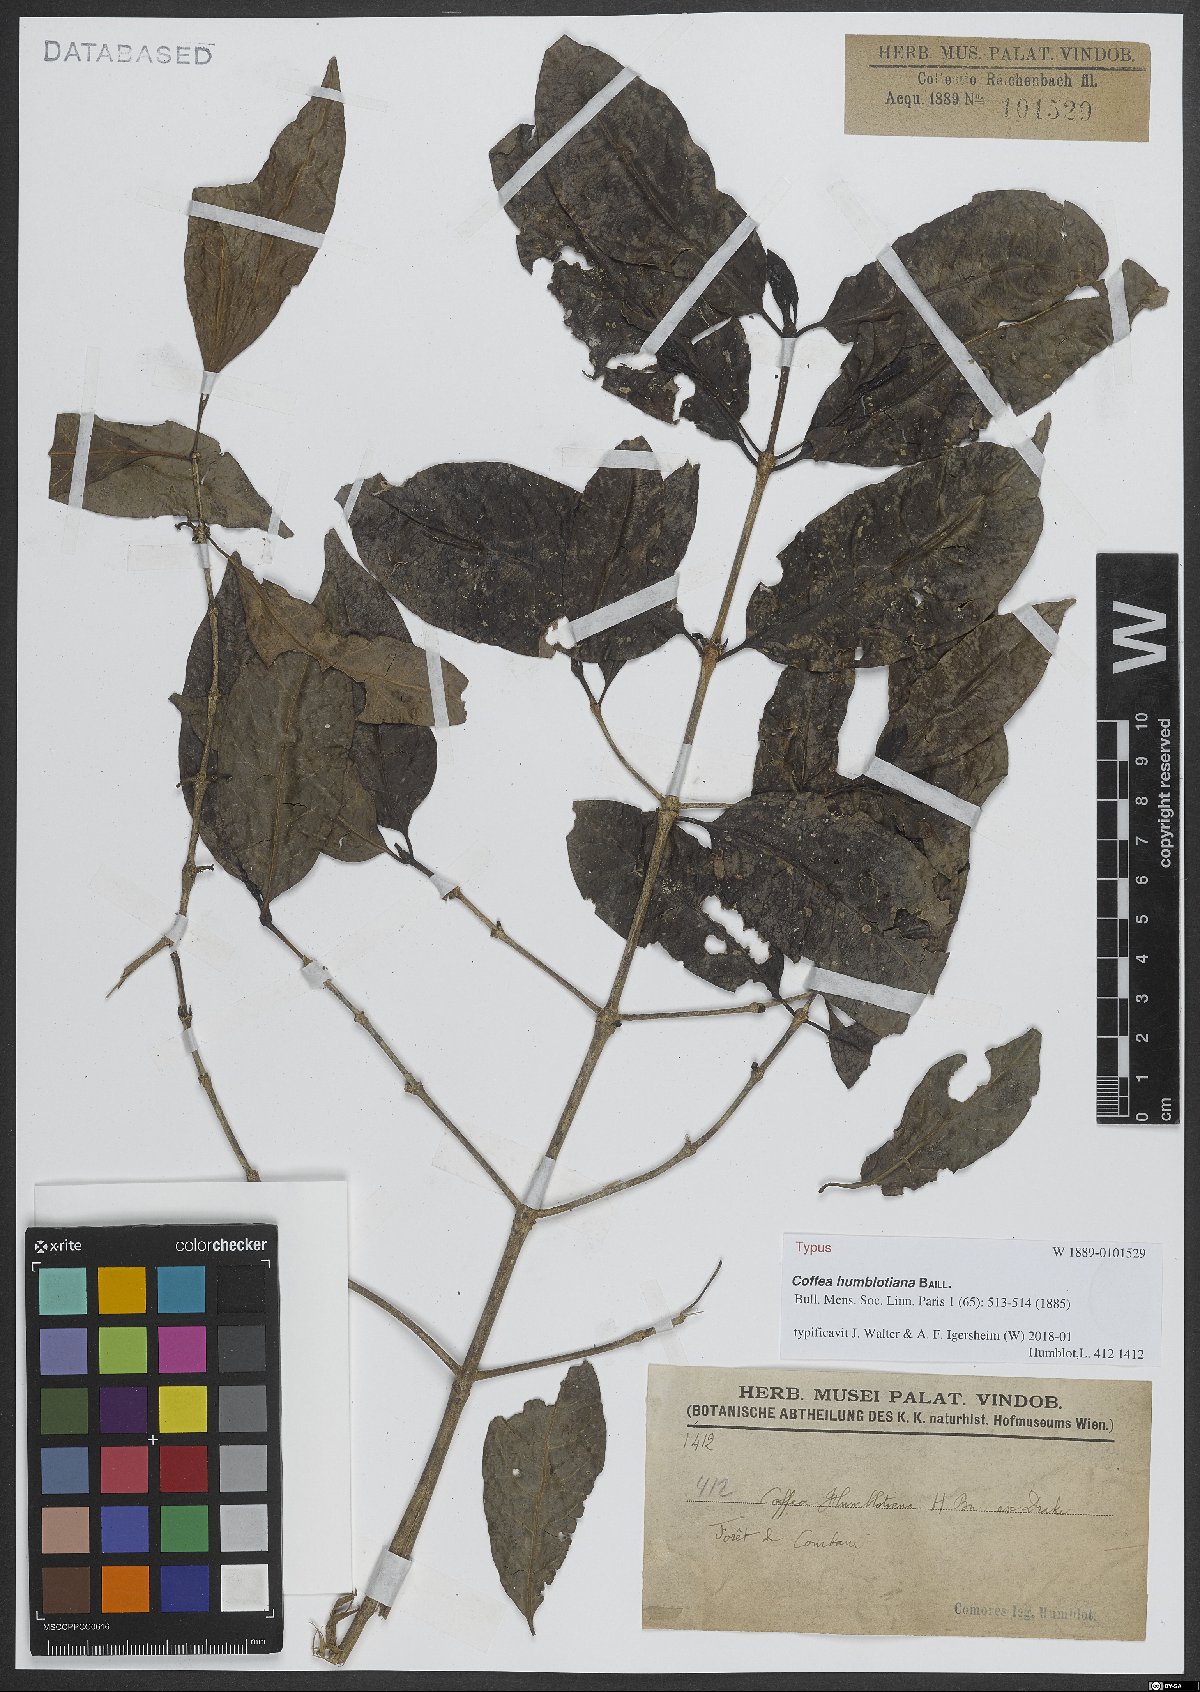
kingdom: Plantae
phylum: Tracheophyta
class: Magnoliopsida
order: Gentianales
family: Rubiaceae
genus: Coffea
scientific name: Coffea humblotiana
